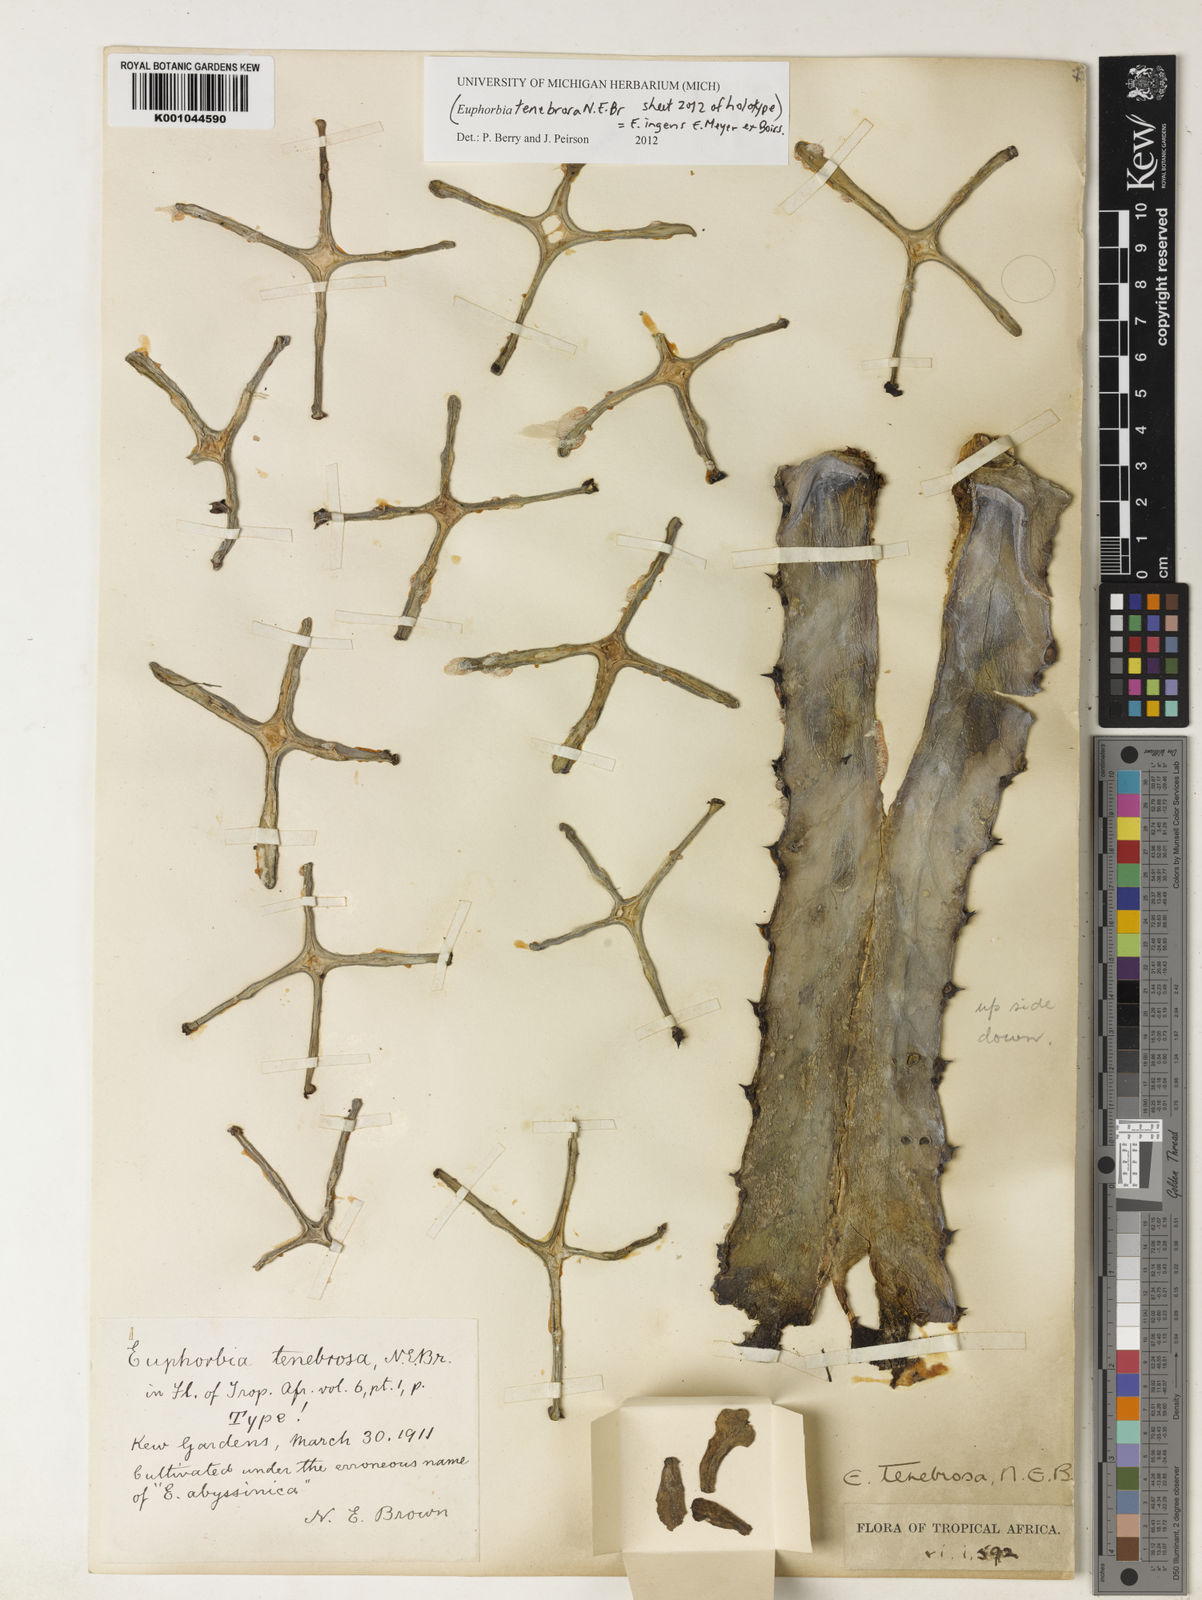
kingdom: Plantae
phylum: Tracheophyta
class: Magnoliopsida
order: Malpighiales
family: Euphorbiaceae
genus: Euphorbia
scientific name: Euphorbia ingens
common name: Cactus spurge
